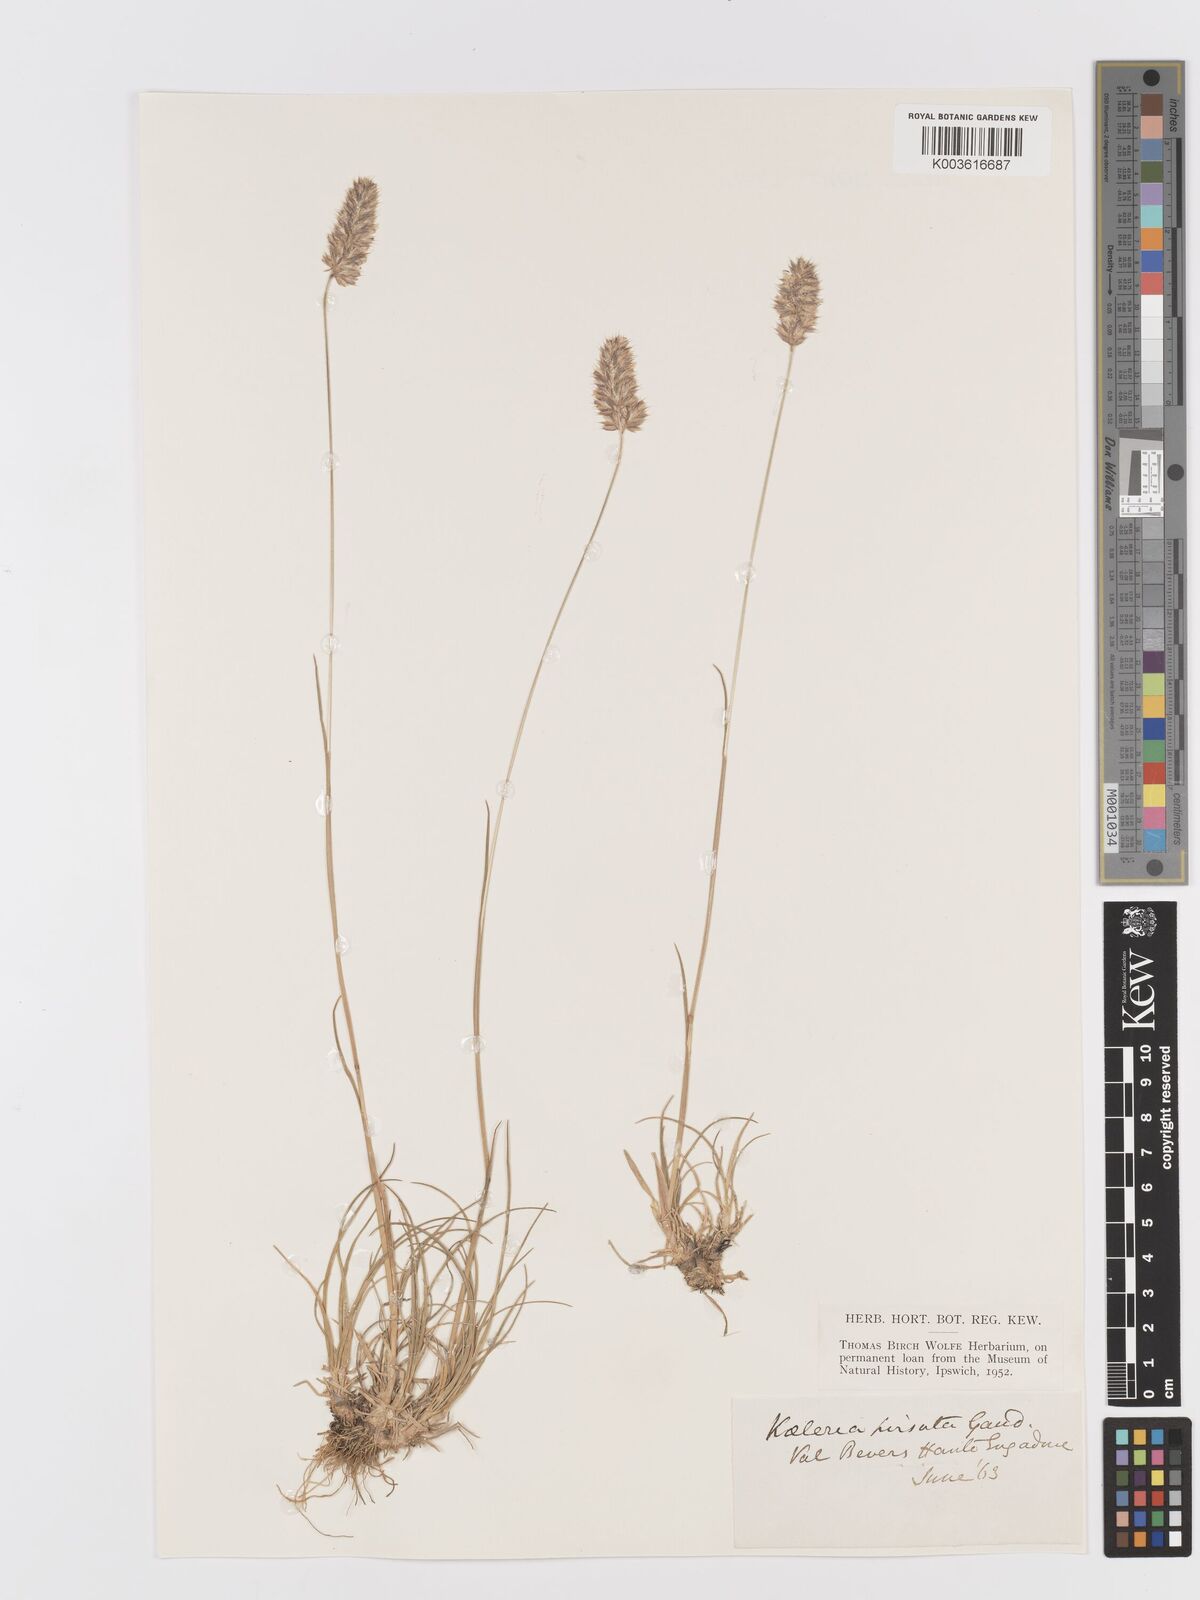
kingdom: Plantae
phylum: Tracheophyta
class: Liliopsida
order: Poales
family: Poaceae
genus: Koeleria
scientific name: Koeleria hirsuta
